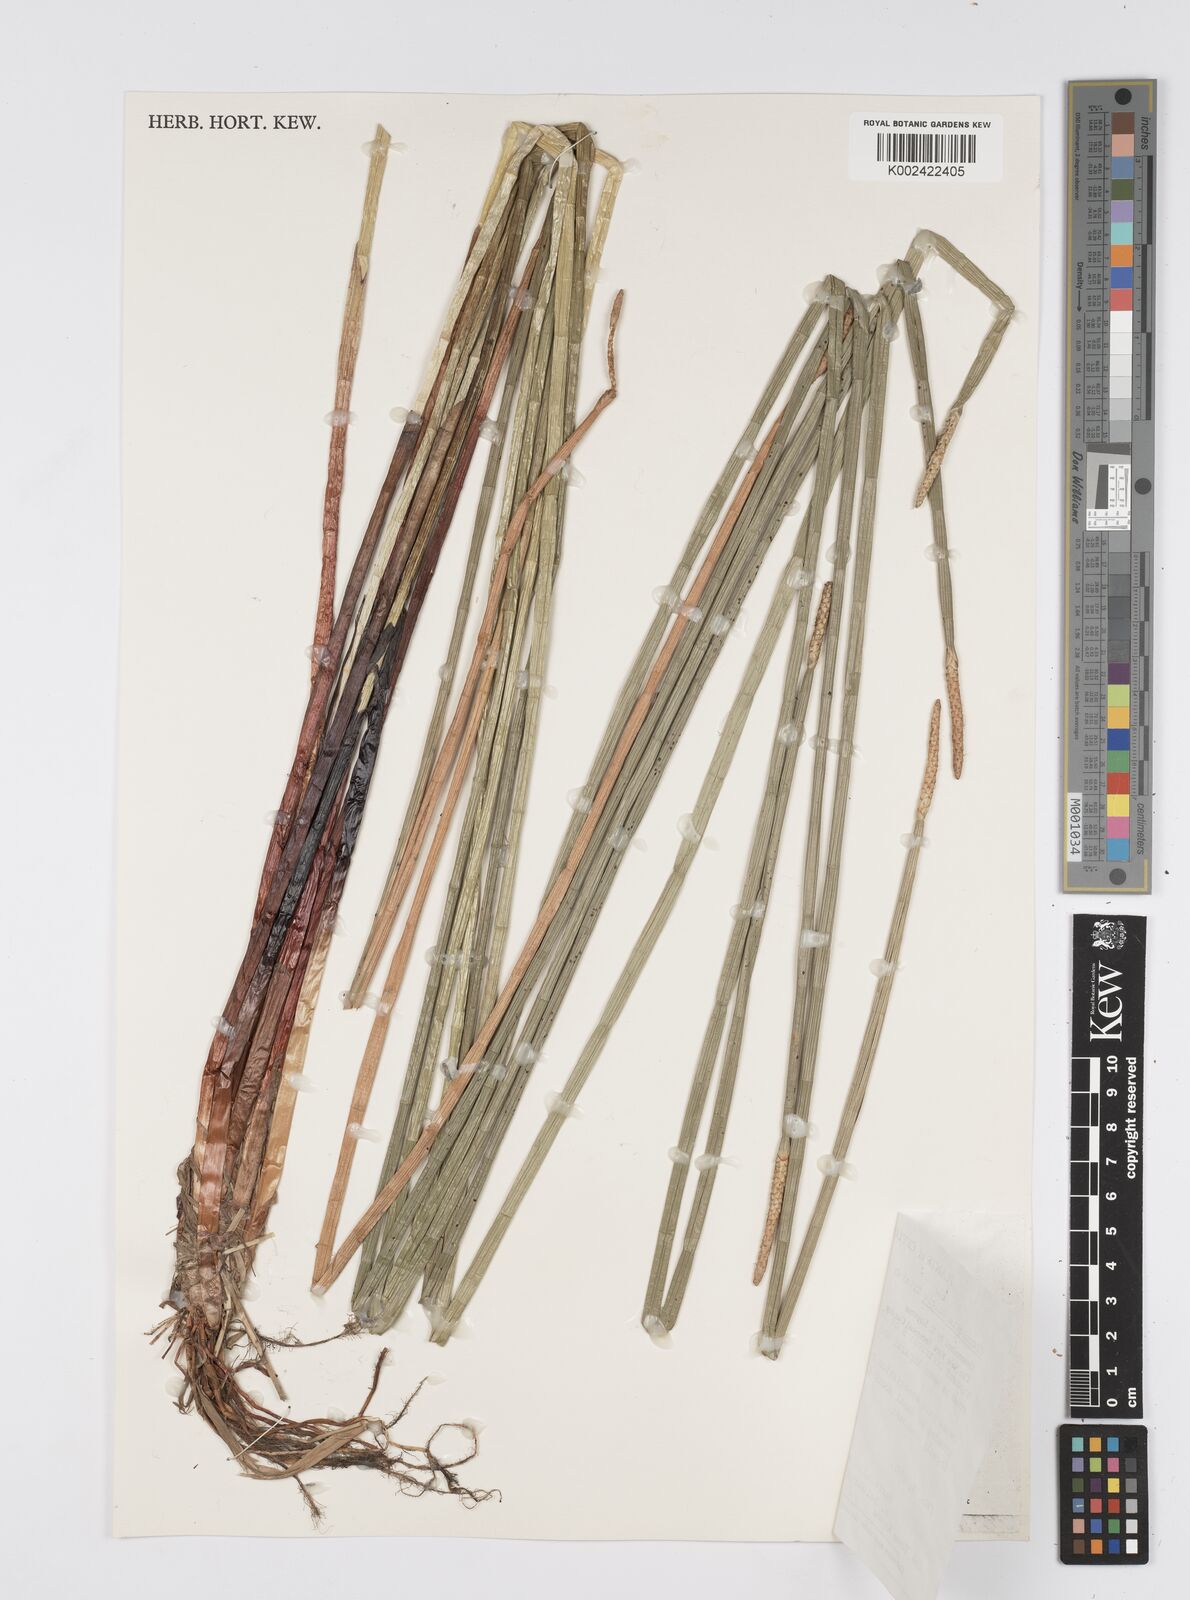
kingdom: Plantae
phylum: Tracheophyta
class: Liliopsida
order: Poales
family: Cyperaceae
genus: Eleocharis
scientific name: Eleocharis dulcis
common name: Chinese water chestnut
